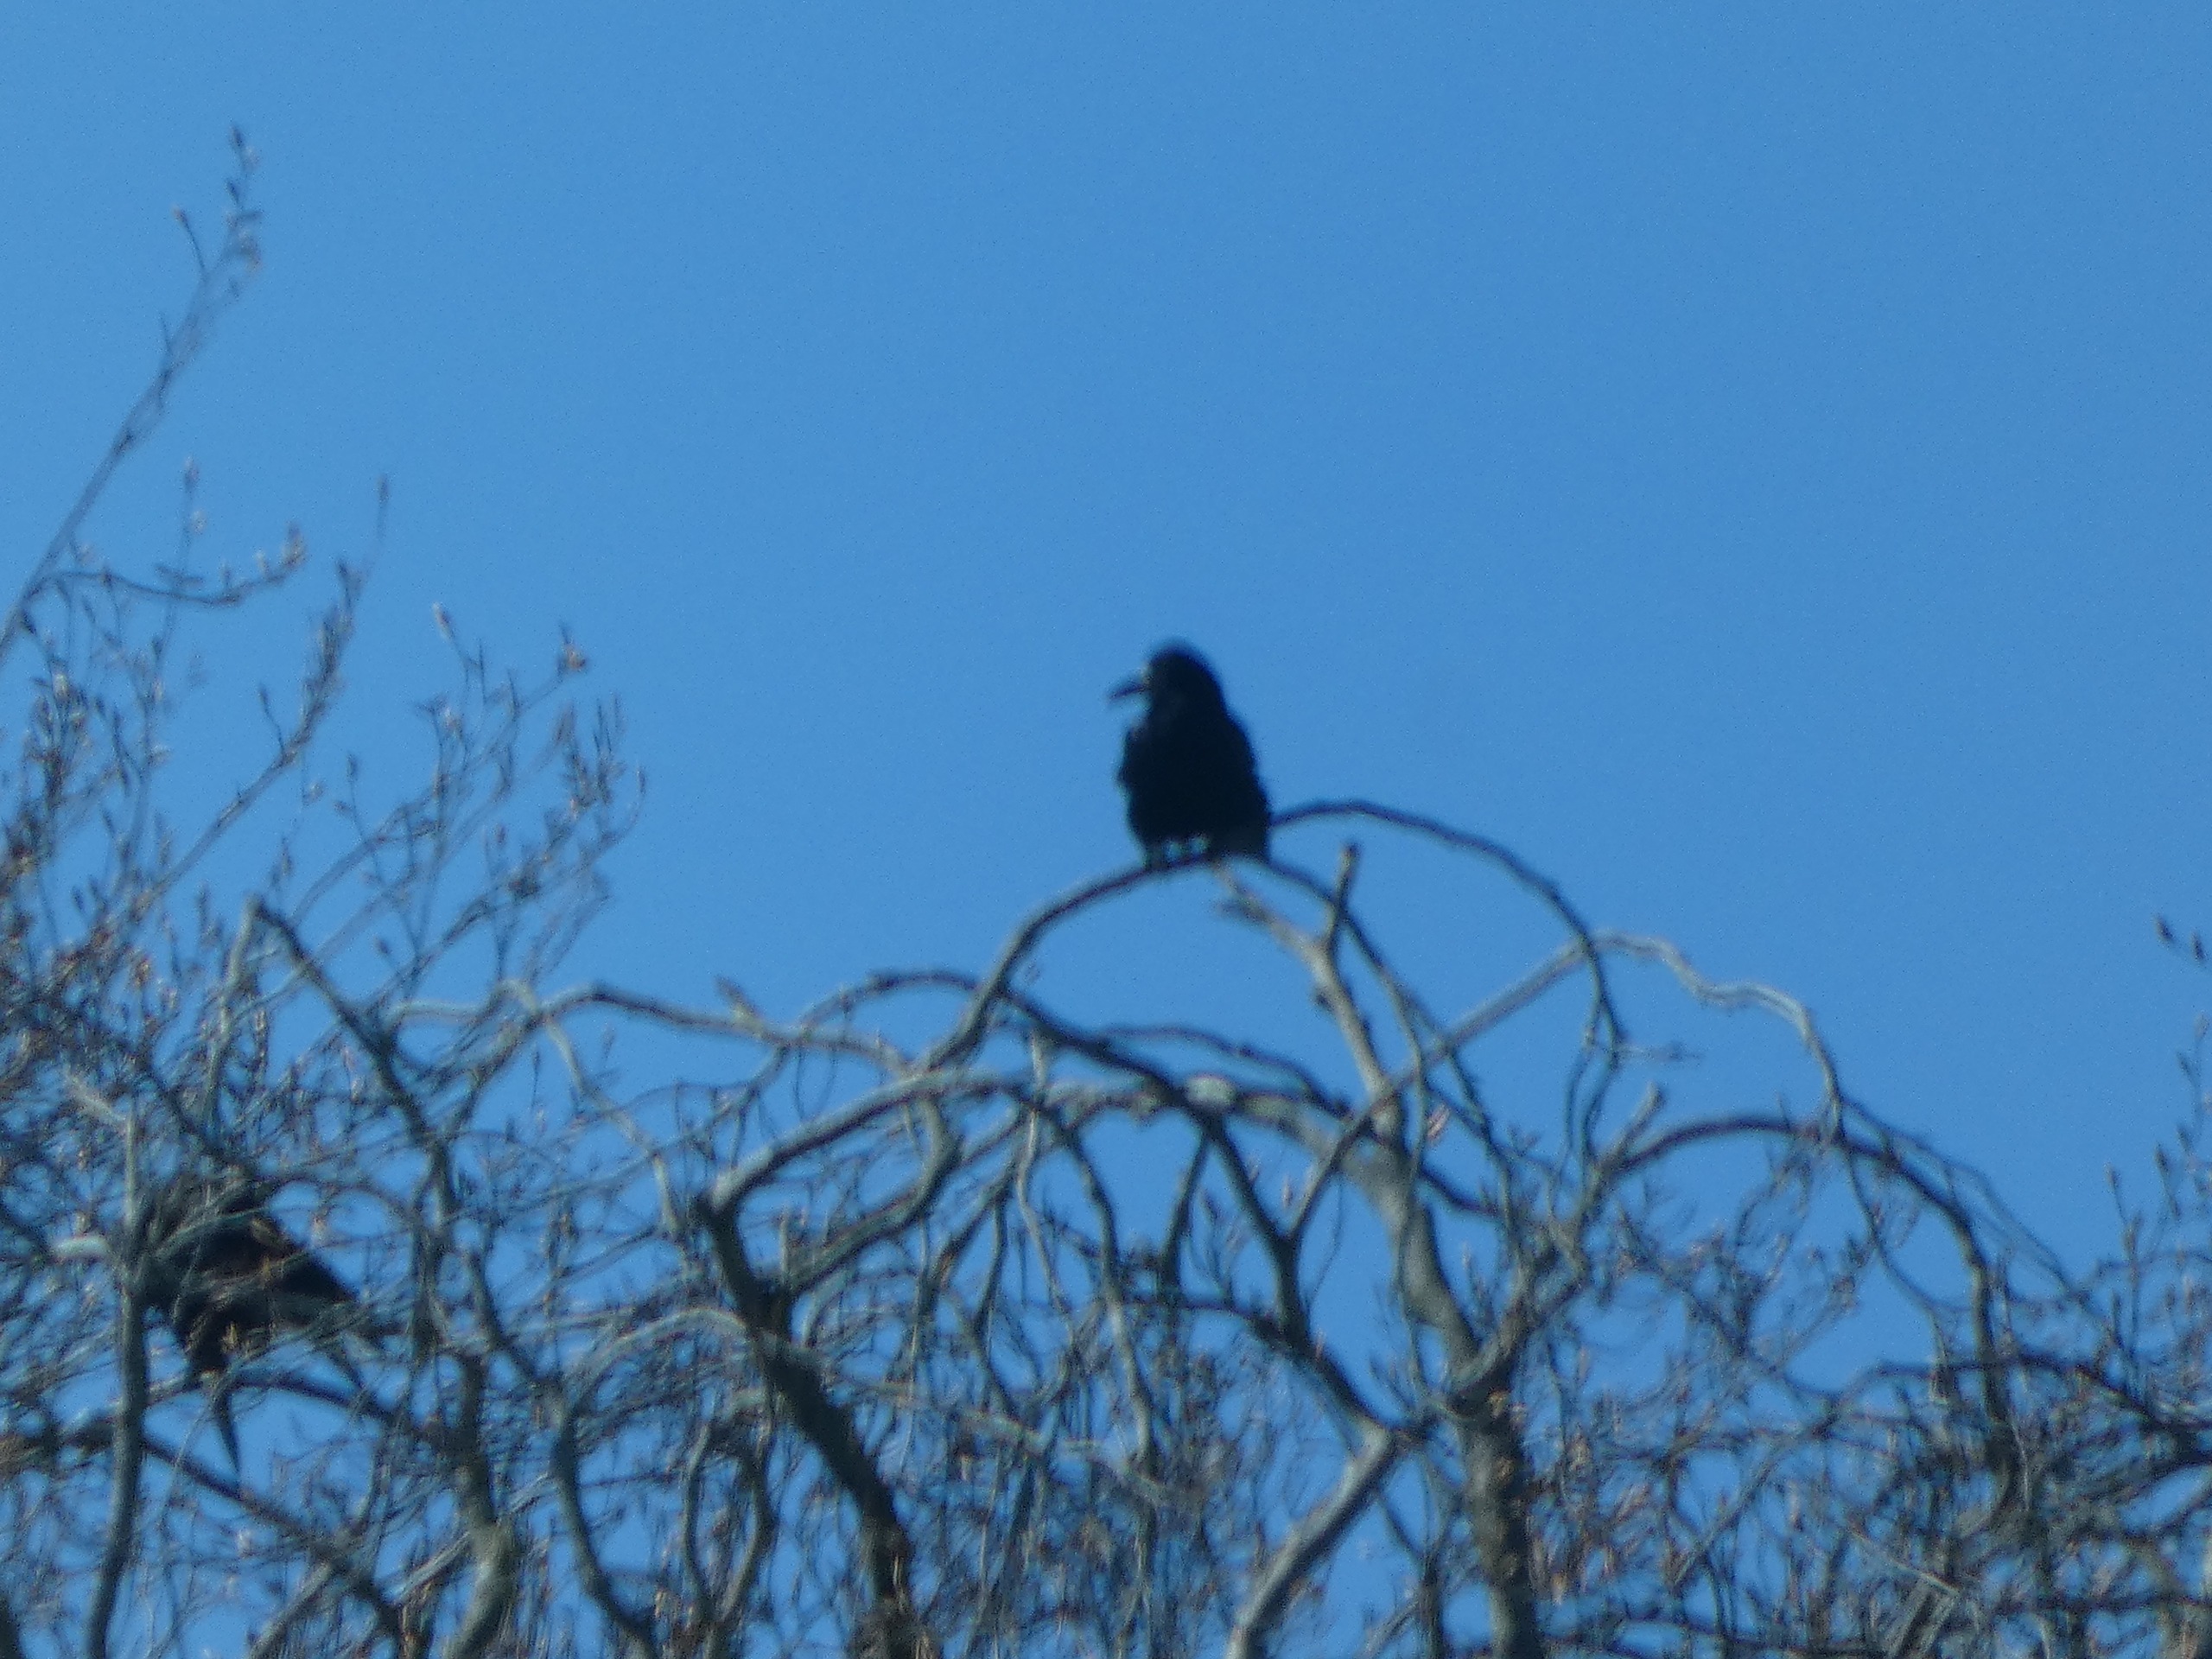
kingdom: Animalia
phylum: Chordata
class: Aves
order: Passeriformes
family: Corvidae
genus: Corvus
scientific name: Corvus frugilegus
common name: Råge
